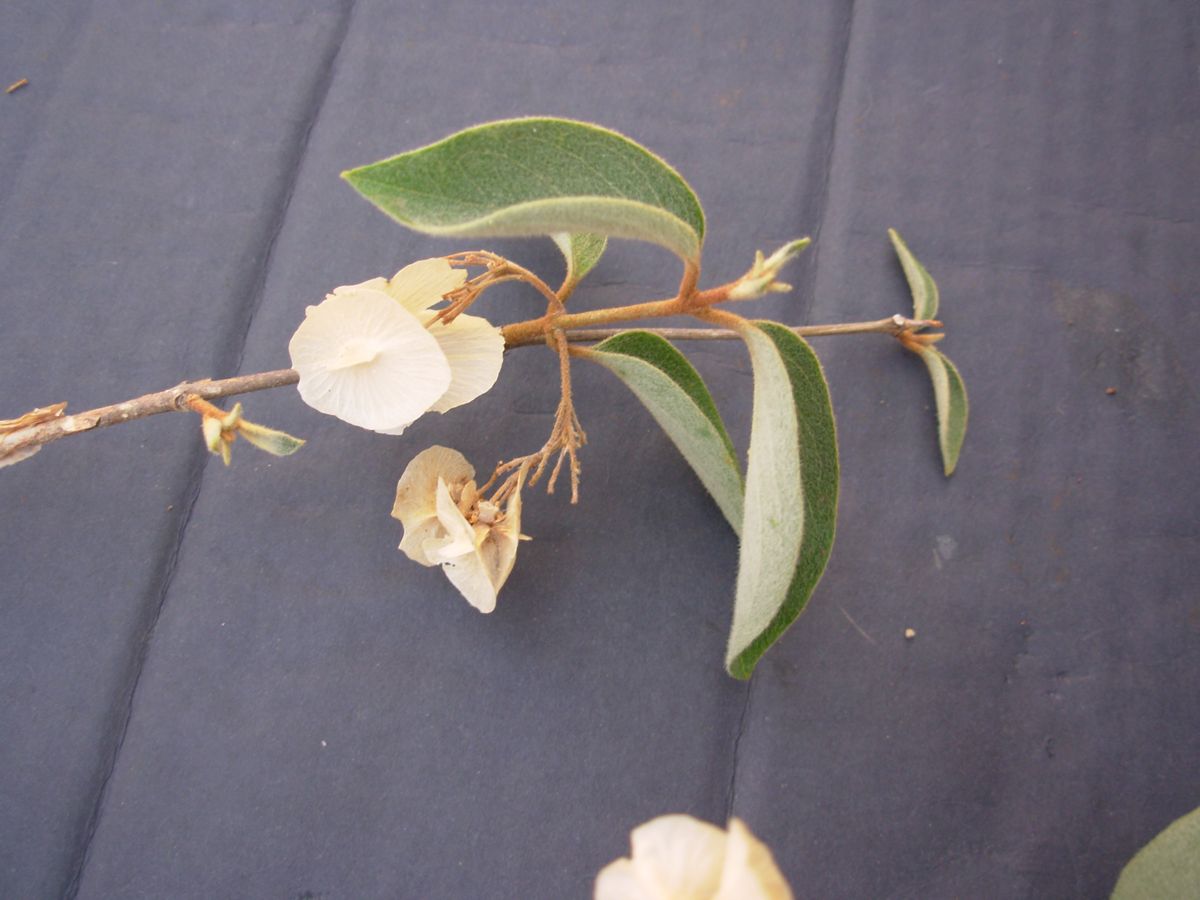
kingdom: Plantae
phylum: Tracheophyta
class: Magnoliopsida
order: Malpighiales
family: Malpighiaceae
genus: Carolus
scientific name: Carolus sinemariensis
